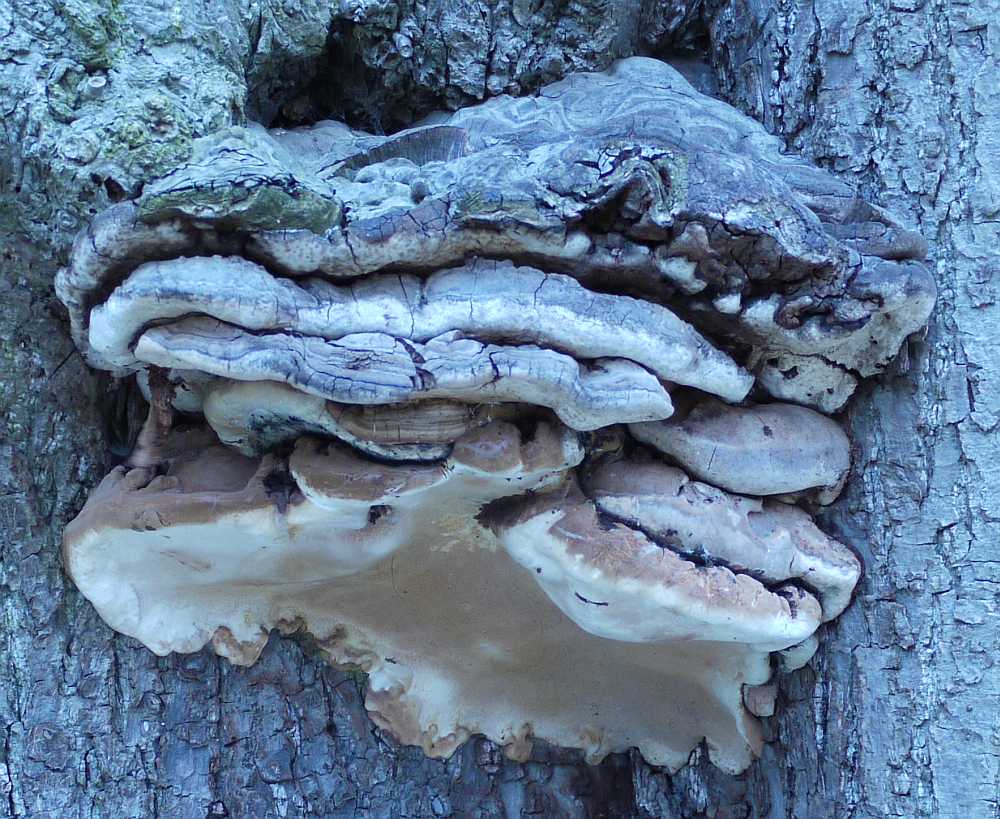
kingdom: Fungi
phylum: Basidiomycota
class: Agaricomycetes
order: Polyporales
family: Polyporaceae
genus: Trametes
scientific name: Trametes hirsuta
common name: håret læderporesvamp
